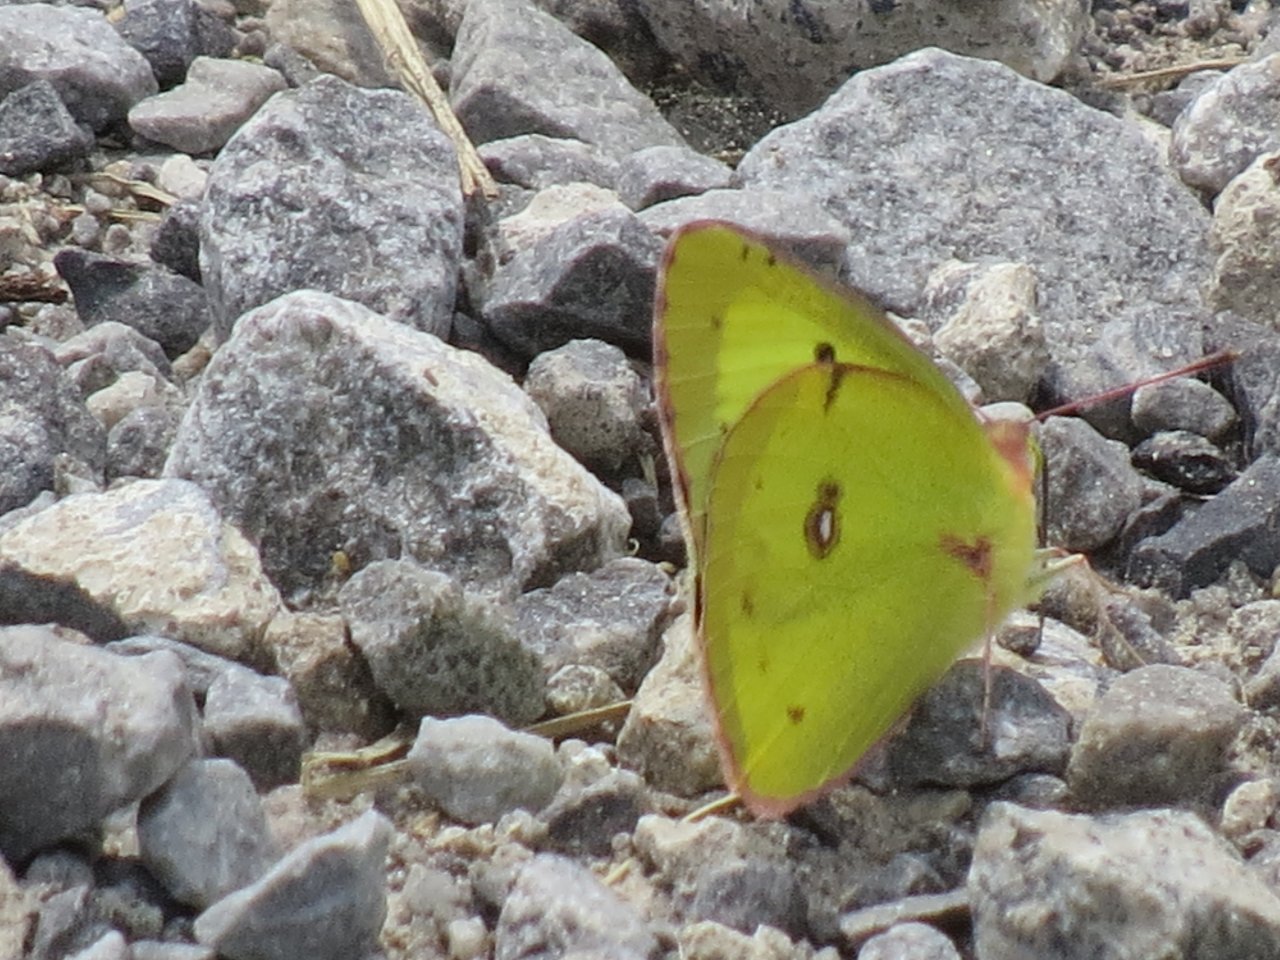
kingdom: Animalia
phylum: Arthropoda
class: Insecta
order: Lepidoptera
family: Pieridae
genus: Colias
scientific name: Colias philodice
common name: Clouded Sulphur
